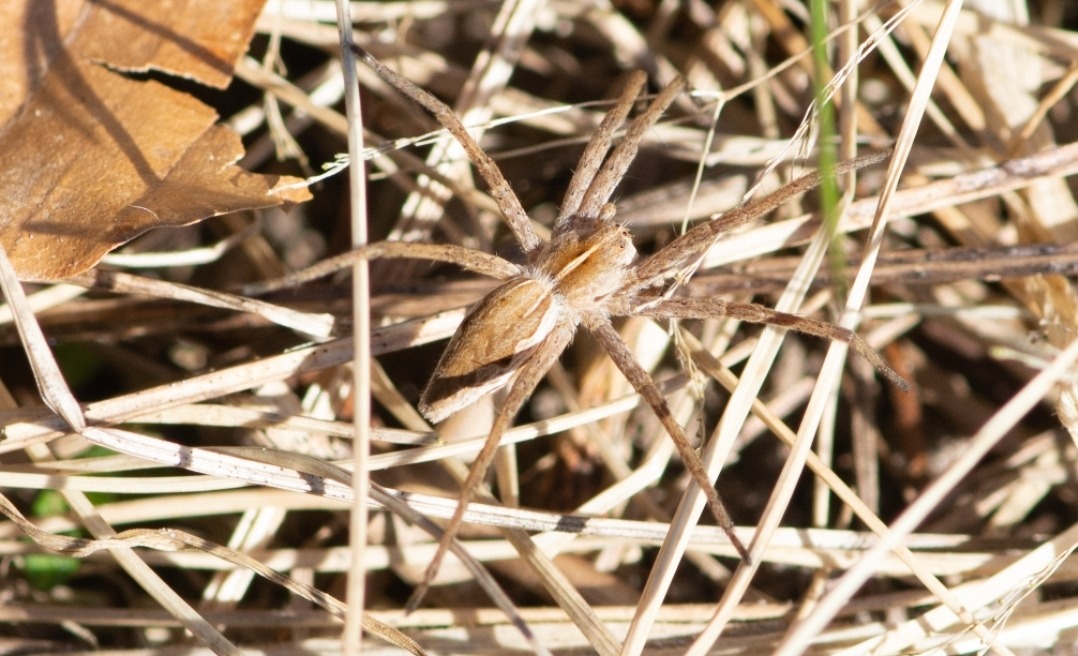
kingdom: Animalia
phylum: Arthropoda
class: Arachnida
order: Araneae
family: Pisauridae
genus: Pisaura
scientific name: Pisaura mirabilis
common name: Almindelig rovedderkop
